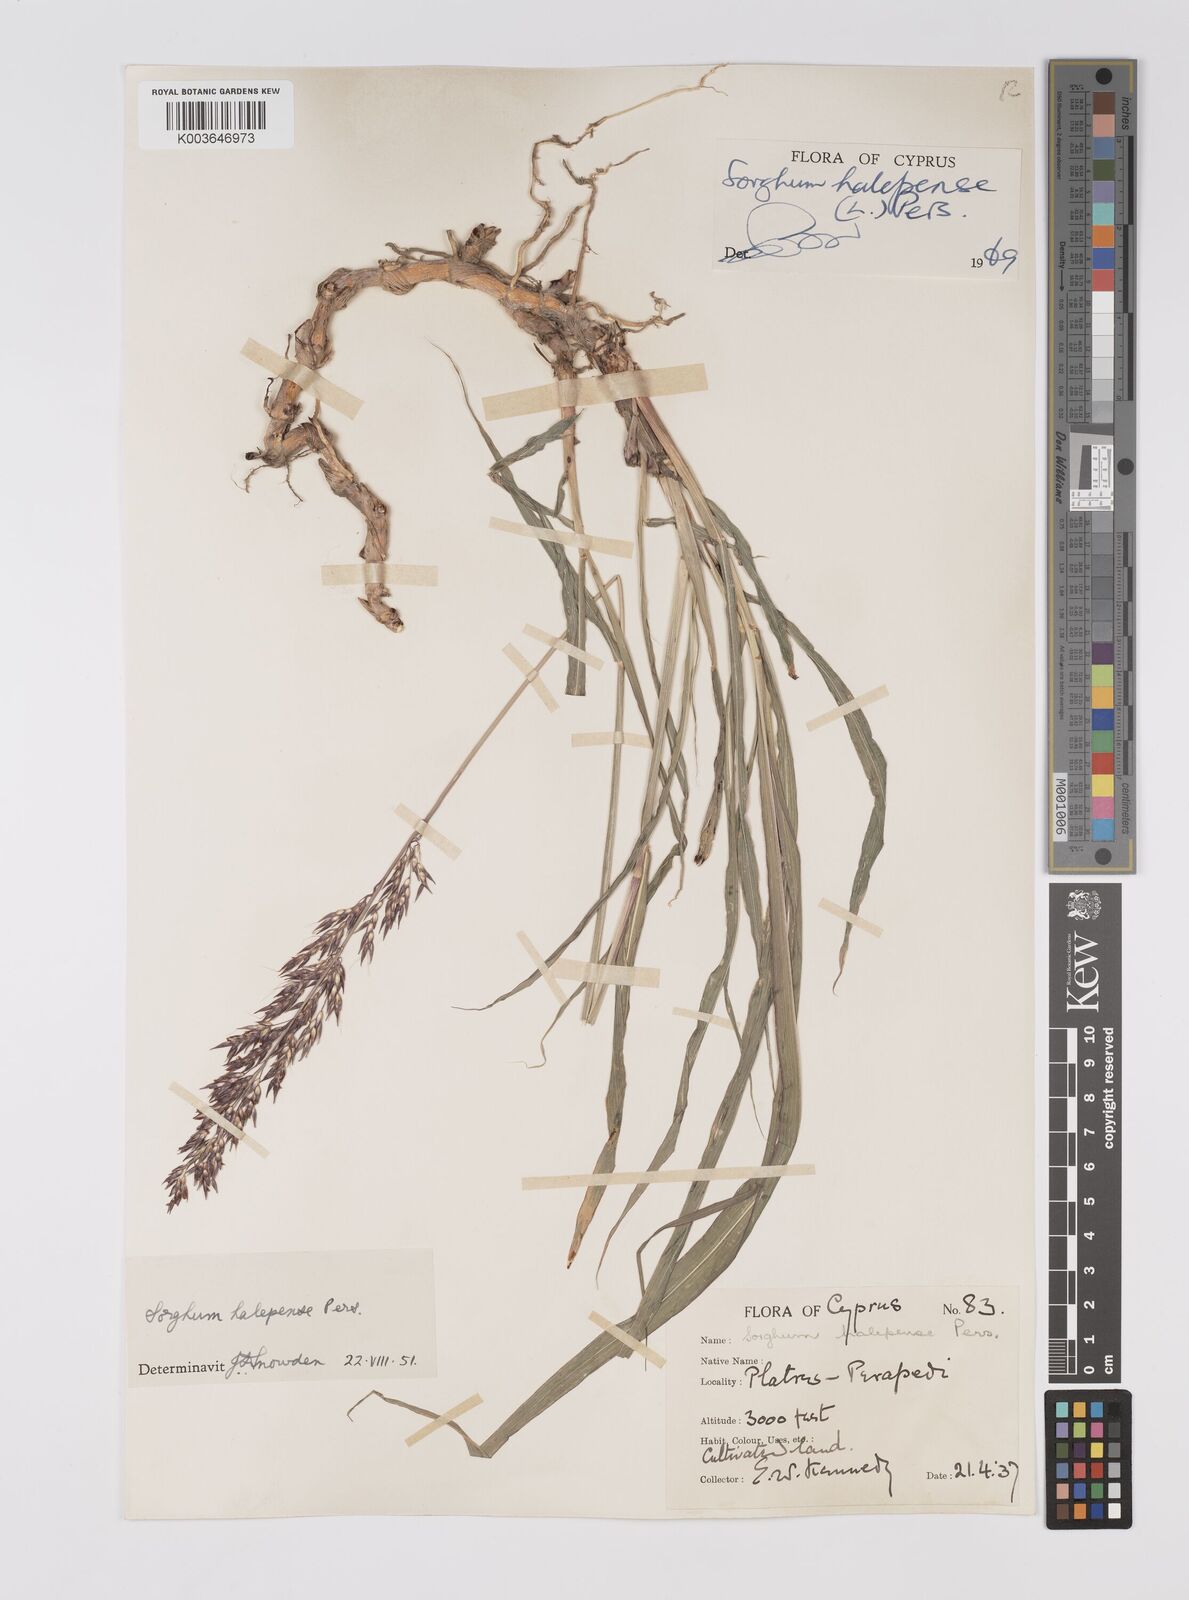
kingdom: Plantae
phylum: Tracheophyta
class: Liliopsida
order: Poales
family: Poaceae
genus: Sorghum
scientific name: Sorghum halepense
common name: Johnson-grass
